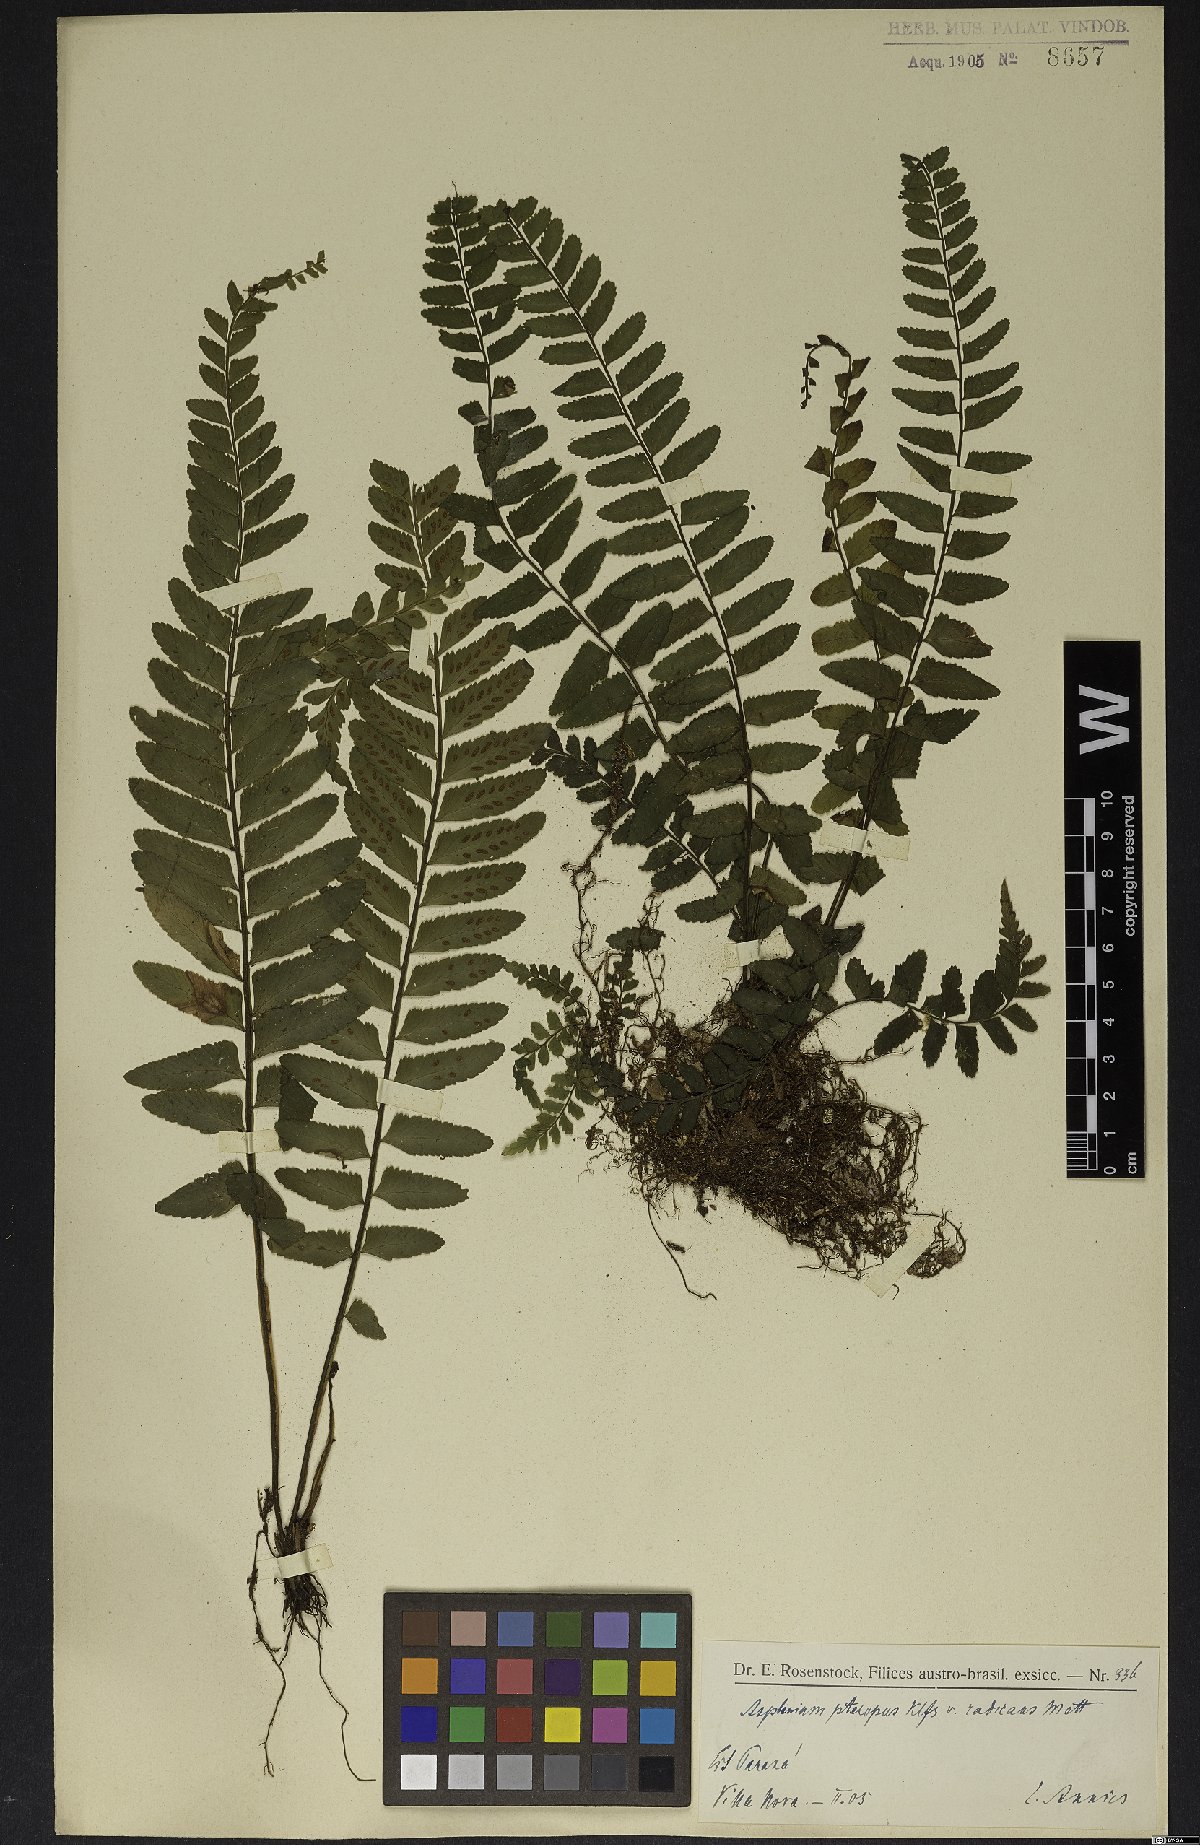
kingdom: Plantae
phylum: Tracheophyta
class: Polypodiopsida
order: Polypodiales
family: Aspleniaceae
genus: Asplenium
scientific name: Asplenium lunulatum
